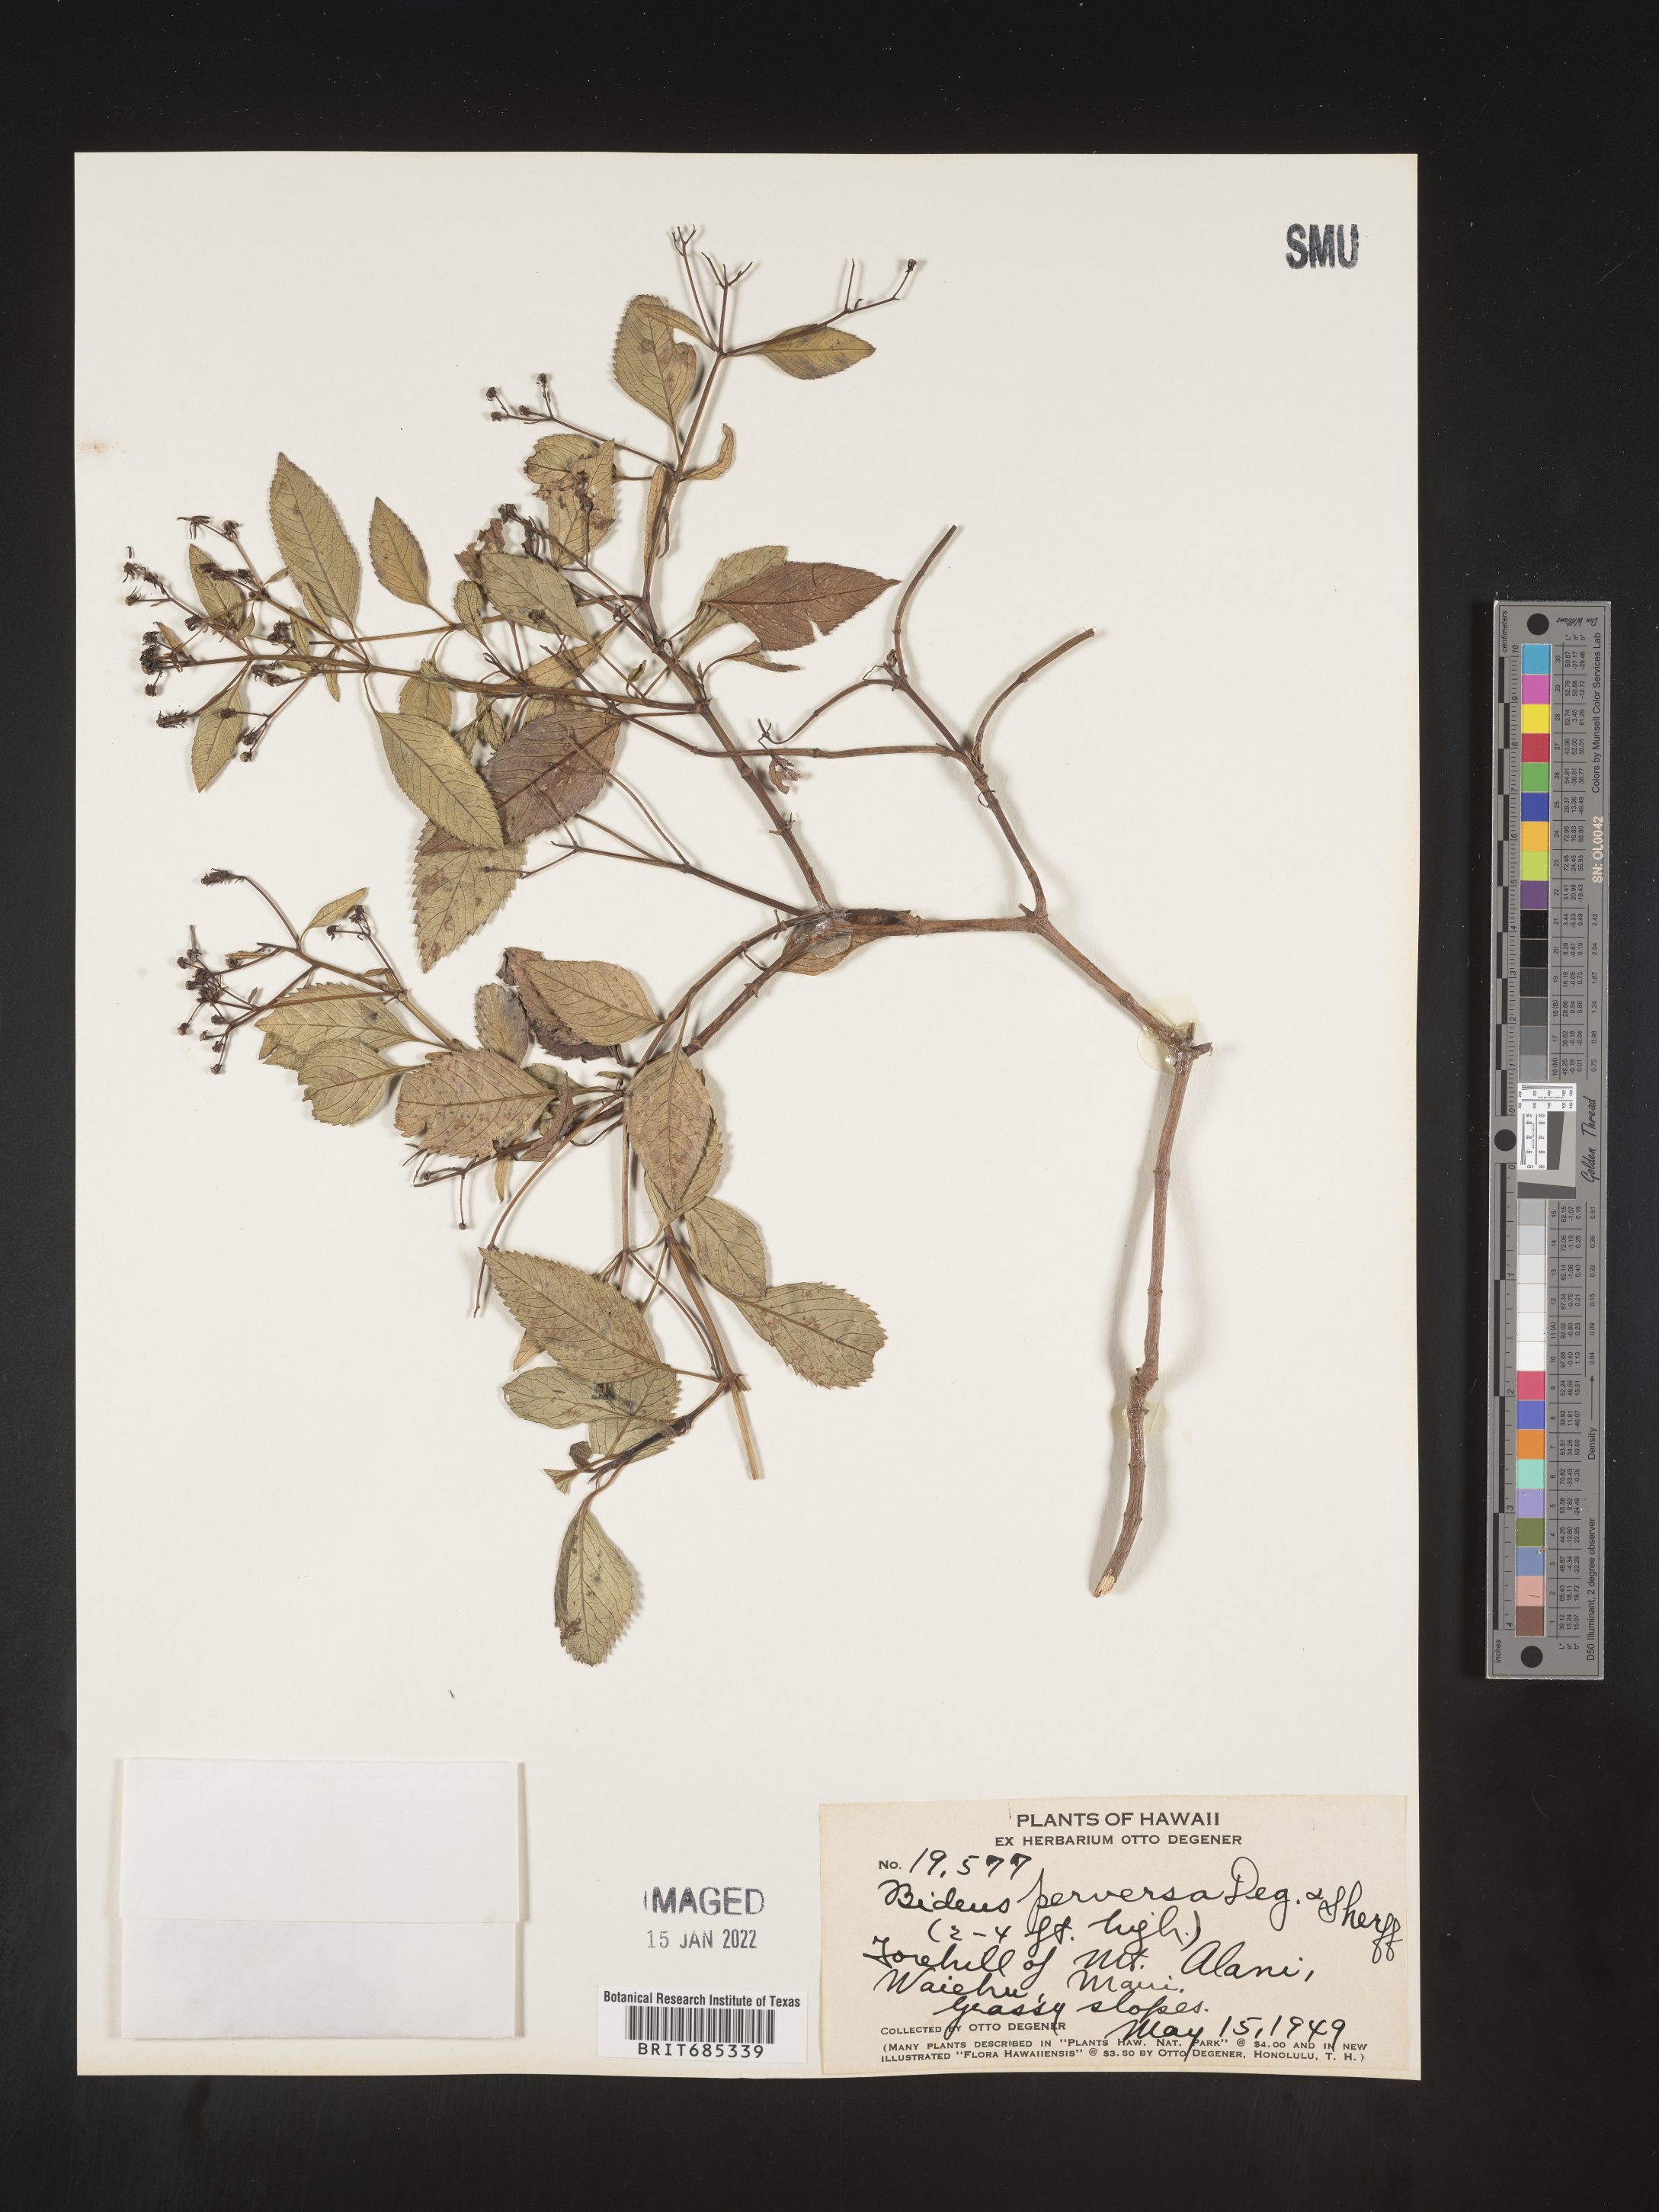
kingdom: Plantae
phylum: Tracheophyta
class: Magnoliopsida
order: Asterales
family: Asteraceae
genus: Bidens
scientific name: Bidens
